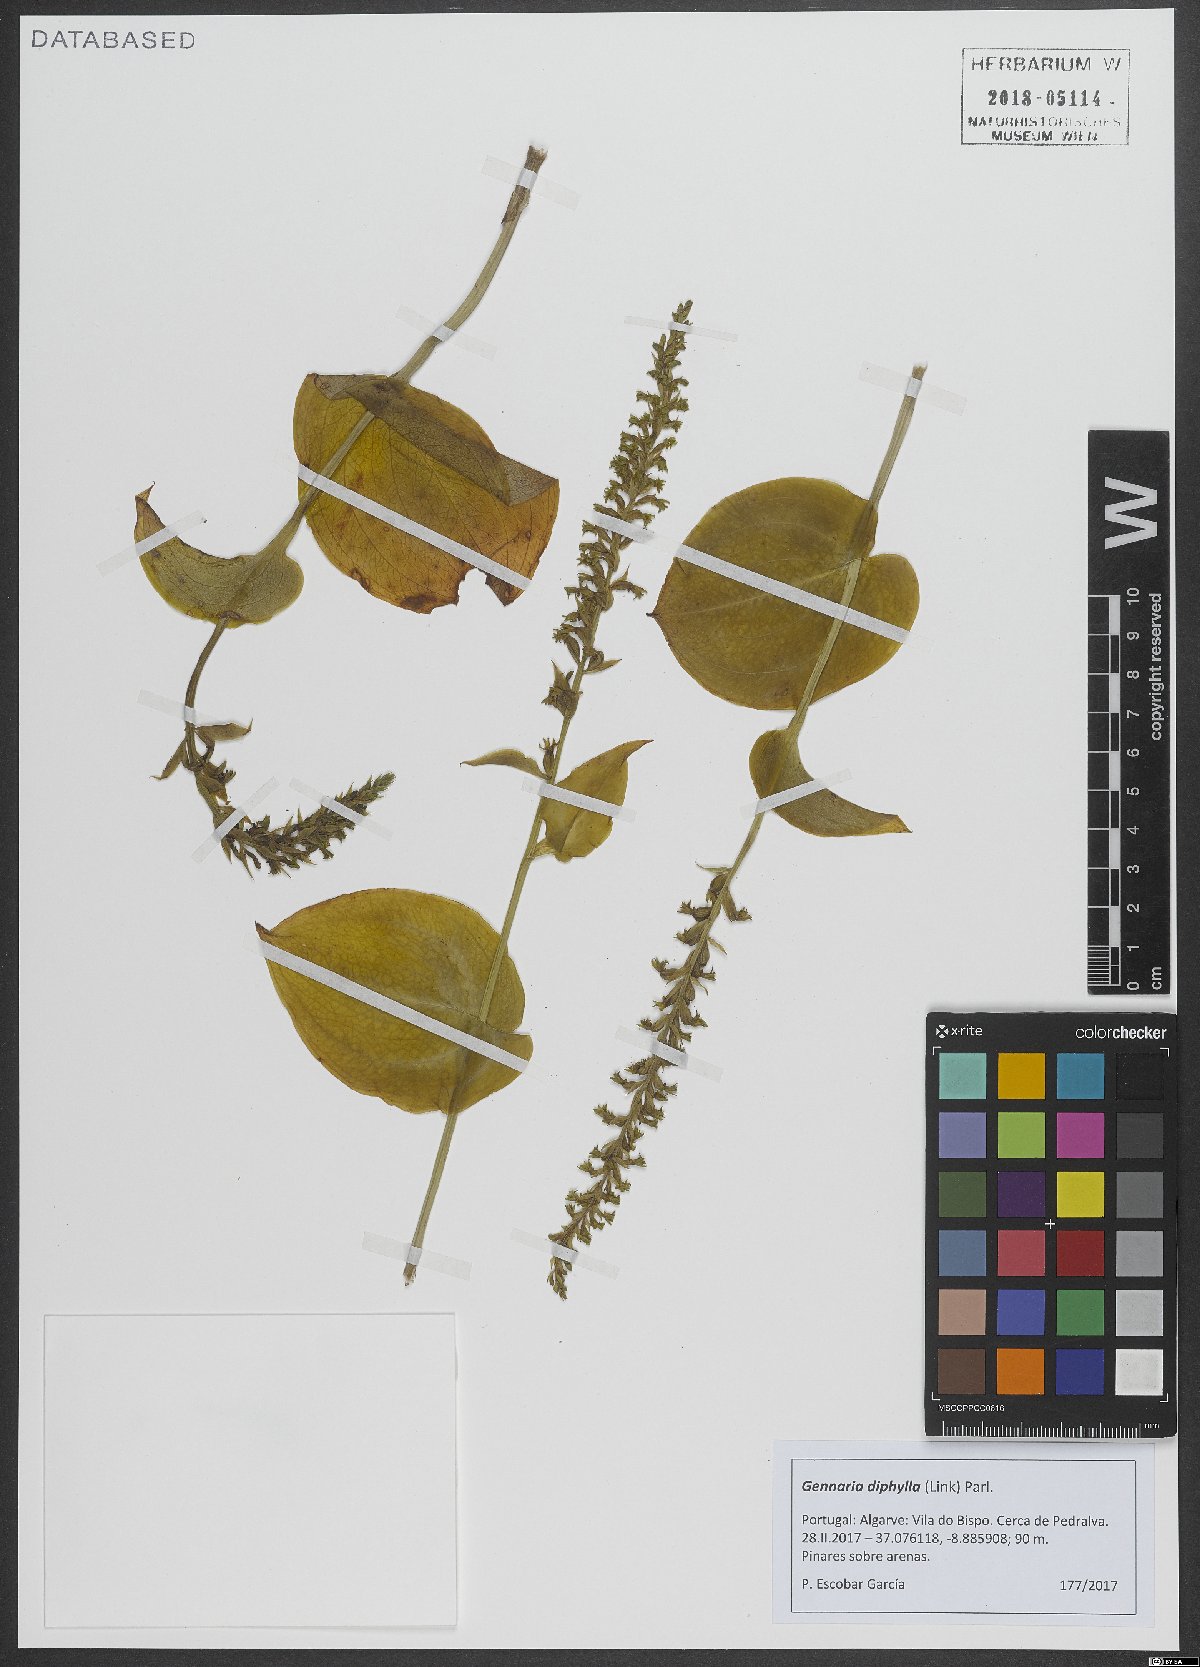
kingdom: Plantae
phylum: Tracheophyta
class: Liliopsida
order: Asparagales
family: Orchidaceae
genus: Gennaria
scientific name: Gennaria diphylla
